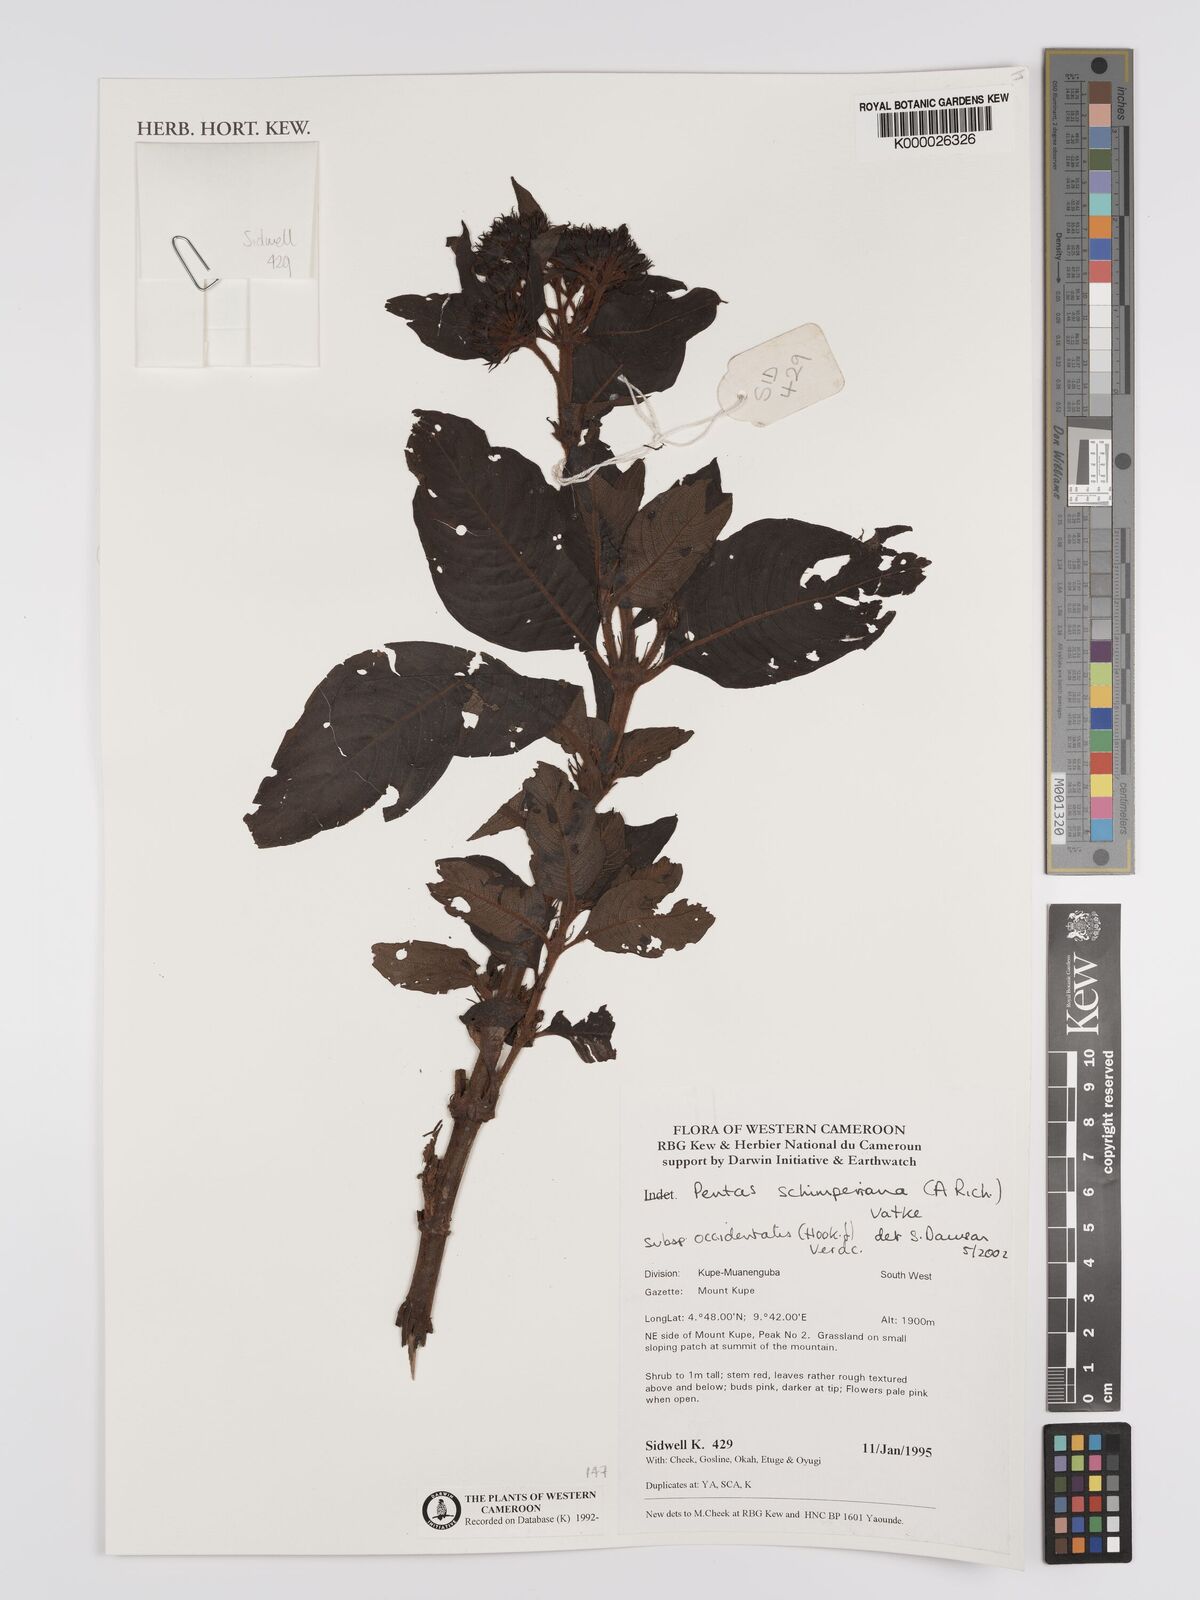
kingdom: Plantae
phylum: Tracheophyta
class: Magnoliopsida
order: Gentianales
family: Rubiaceae
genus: Phyllopentas
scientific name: Phyllopentas schimperi
